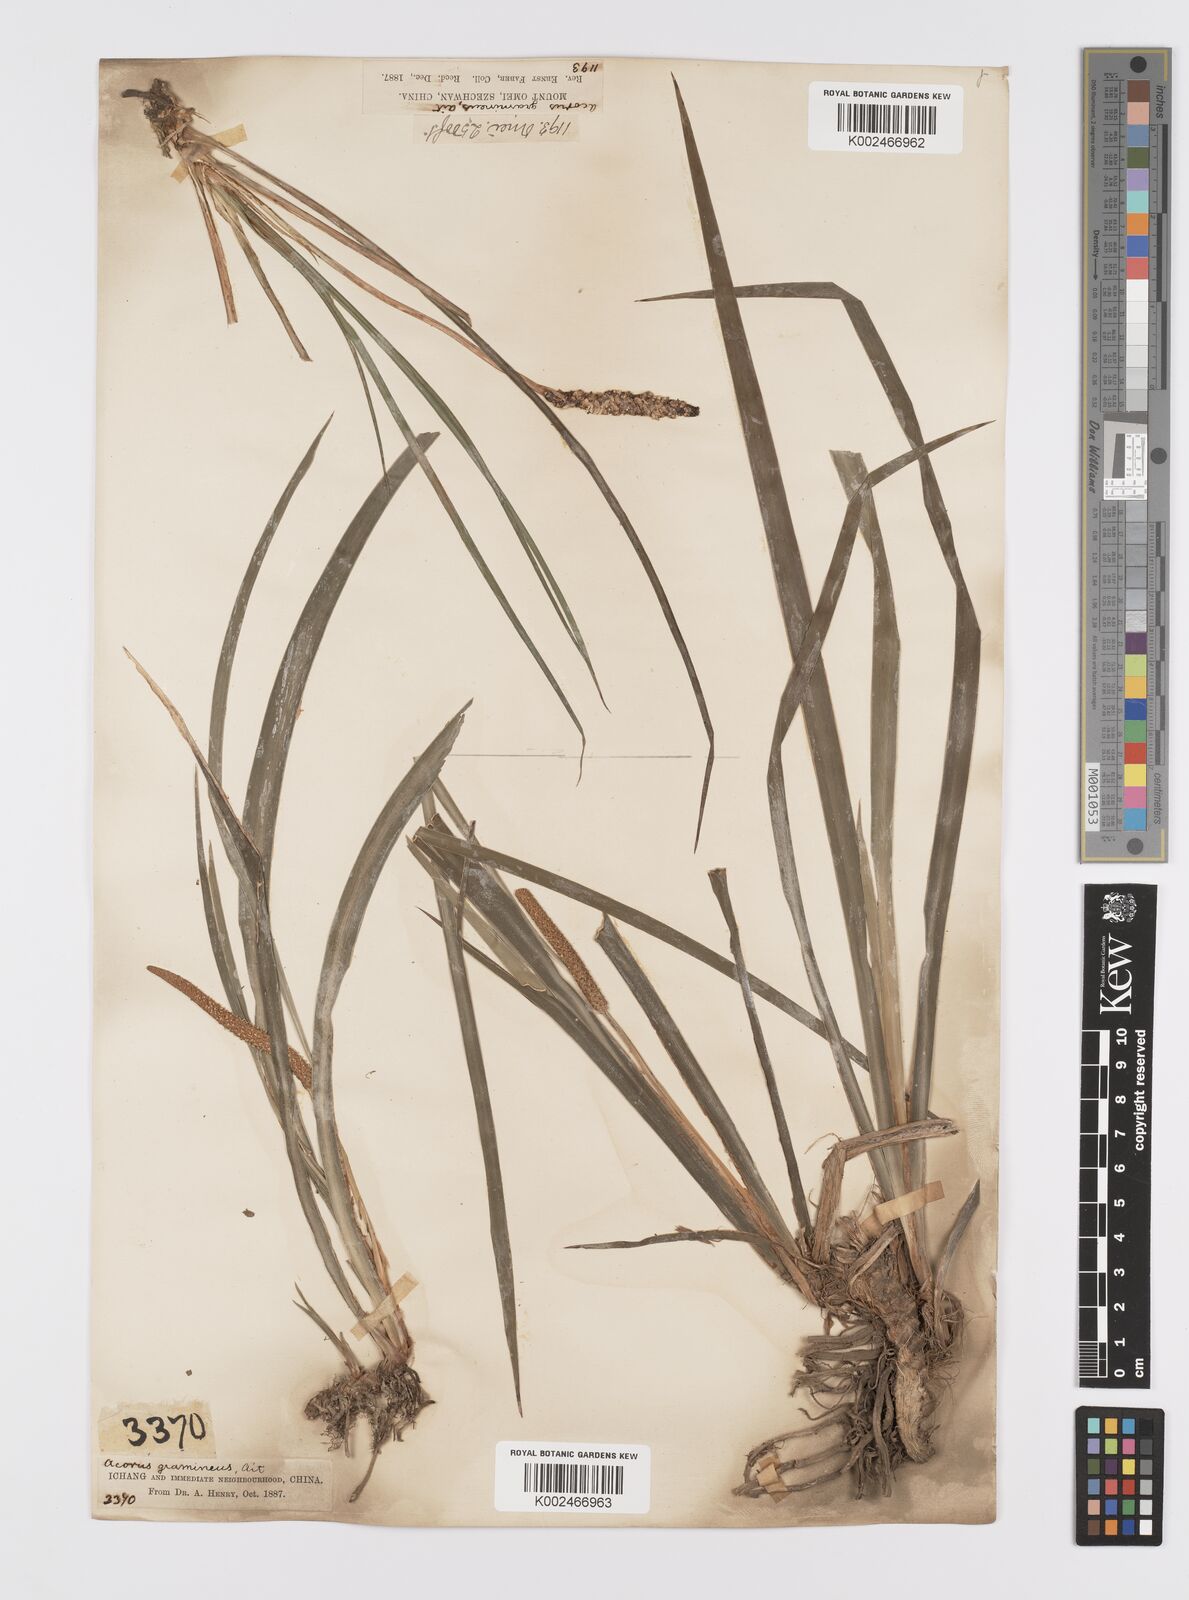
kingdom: Plantae
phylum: Tracheophyta
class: Liliopsida
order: Acorales
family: Acoraceae
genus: Acorus
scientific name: Acorus gramineus
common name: Slender sweet-flag
